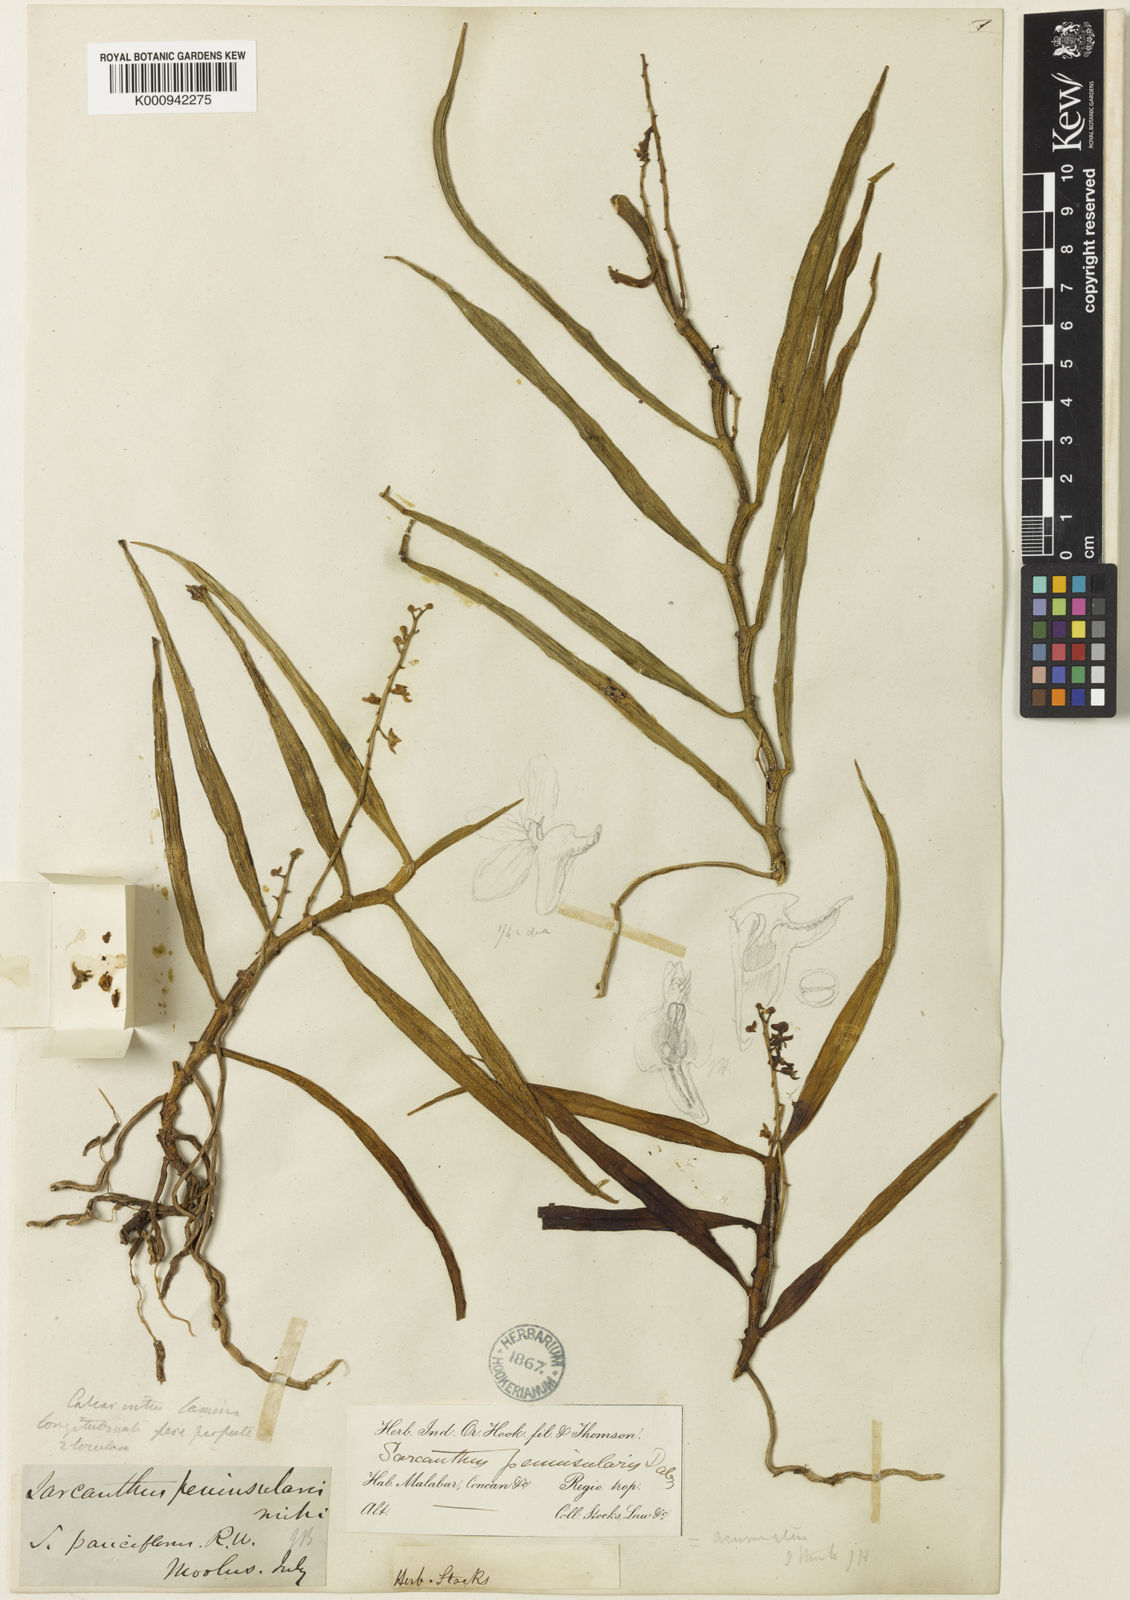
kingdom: Plantae
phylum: Tracheophyta
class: Liliopsida
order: Asparagales
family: Orchidaceae
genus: Cleisostoma
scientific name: Cleisostoma tenuifolium
